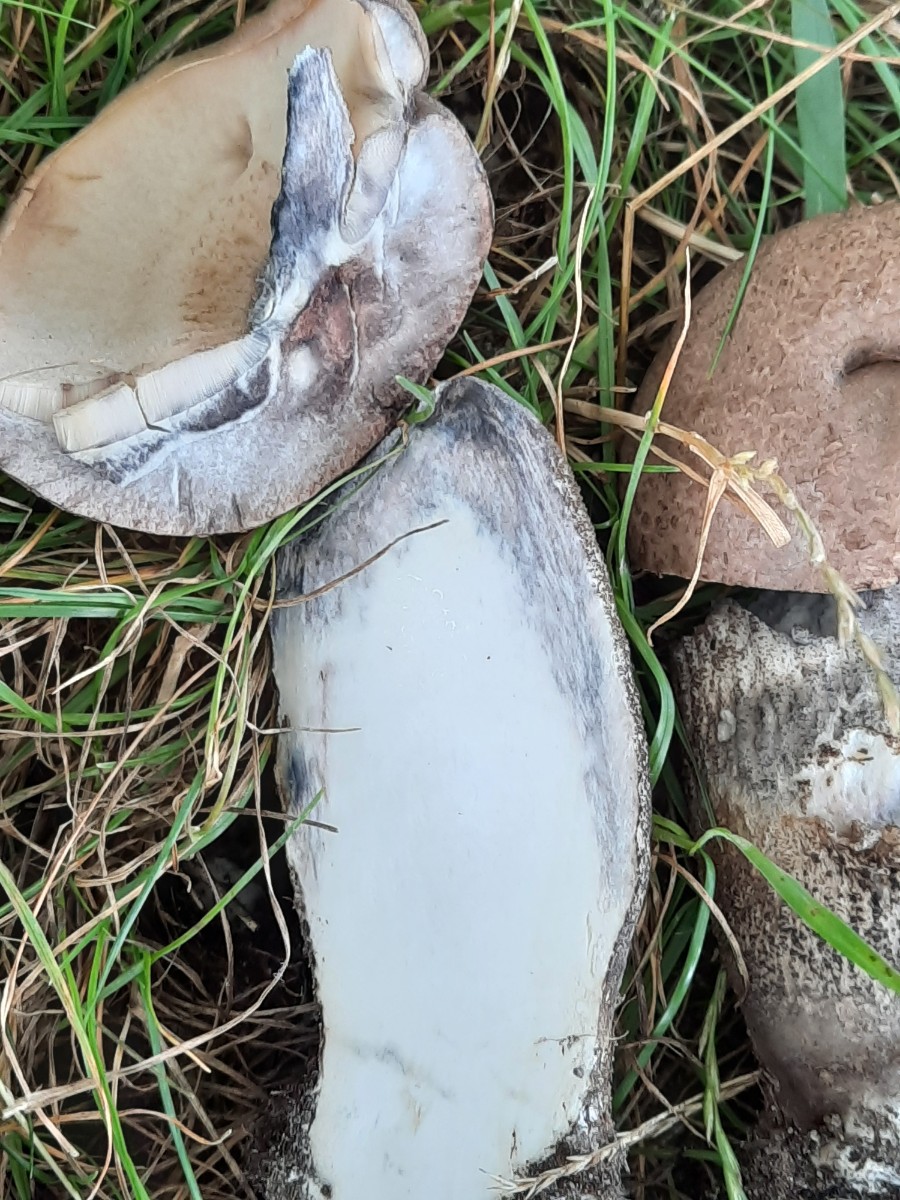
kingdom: Fungi
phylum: Basidiomycota
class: Agaricomycetes
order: Boletales
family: Boletaceae
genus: Leccinum
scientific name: Leccinum duriusculum
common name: poppel-skælrørhat
